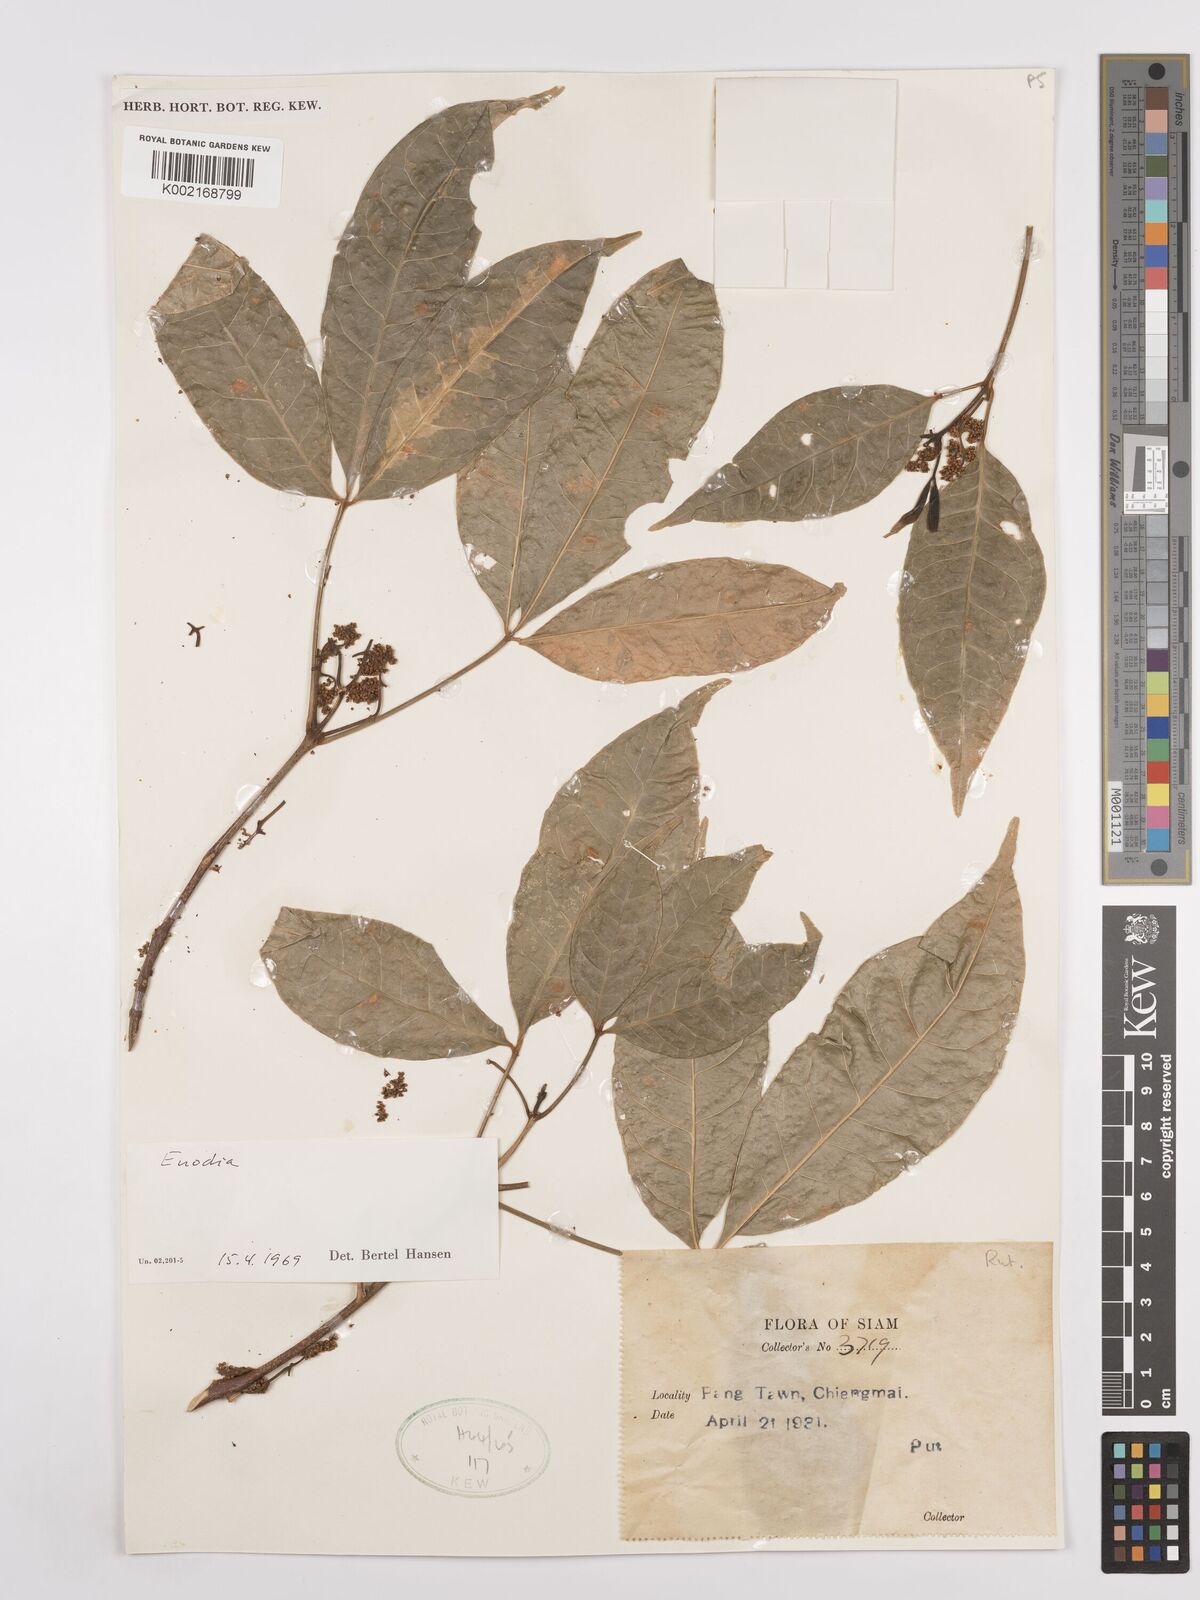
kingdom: Plantae
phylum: Tracheophyta
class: Magnoliopsida
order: Sapindales
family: Rutaceae
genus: Euodia
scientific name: Euodia
